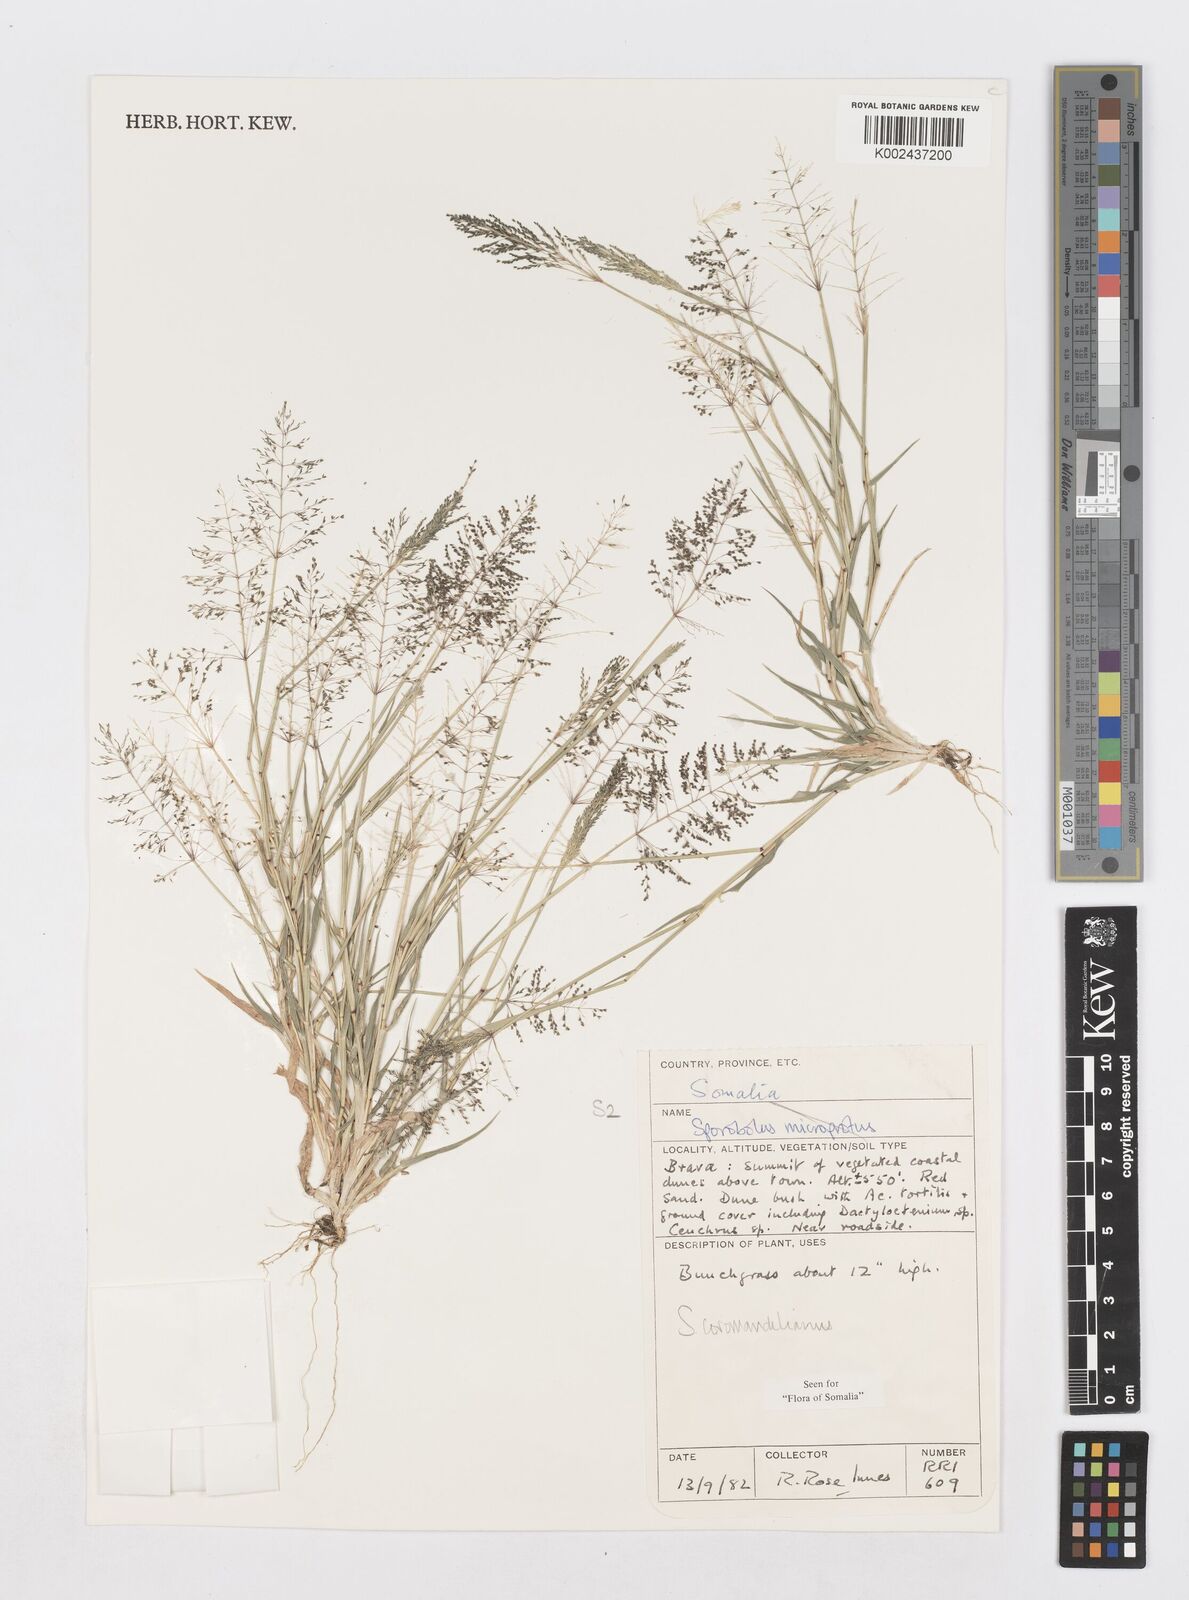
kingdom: Plantae
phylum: Tracheophyta
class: Liliopsida
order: Poales
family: Poaceae
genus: Sporobolus
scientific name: Sporobolus coromandelianus
